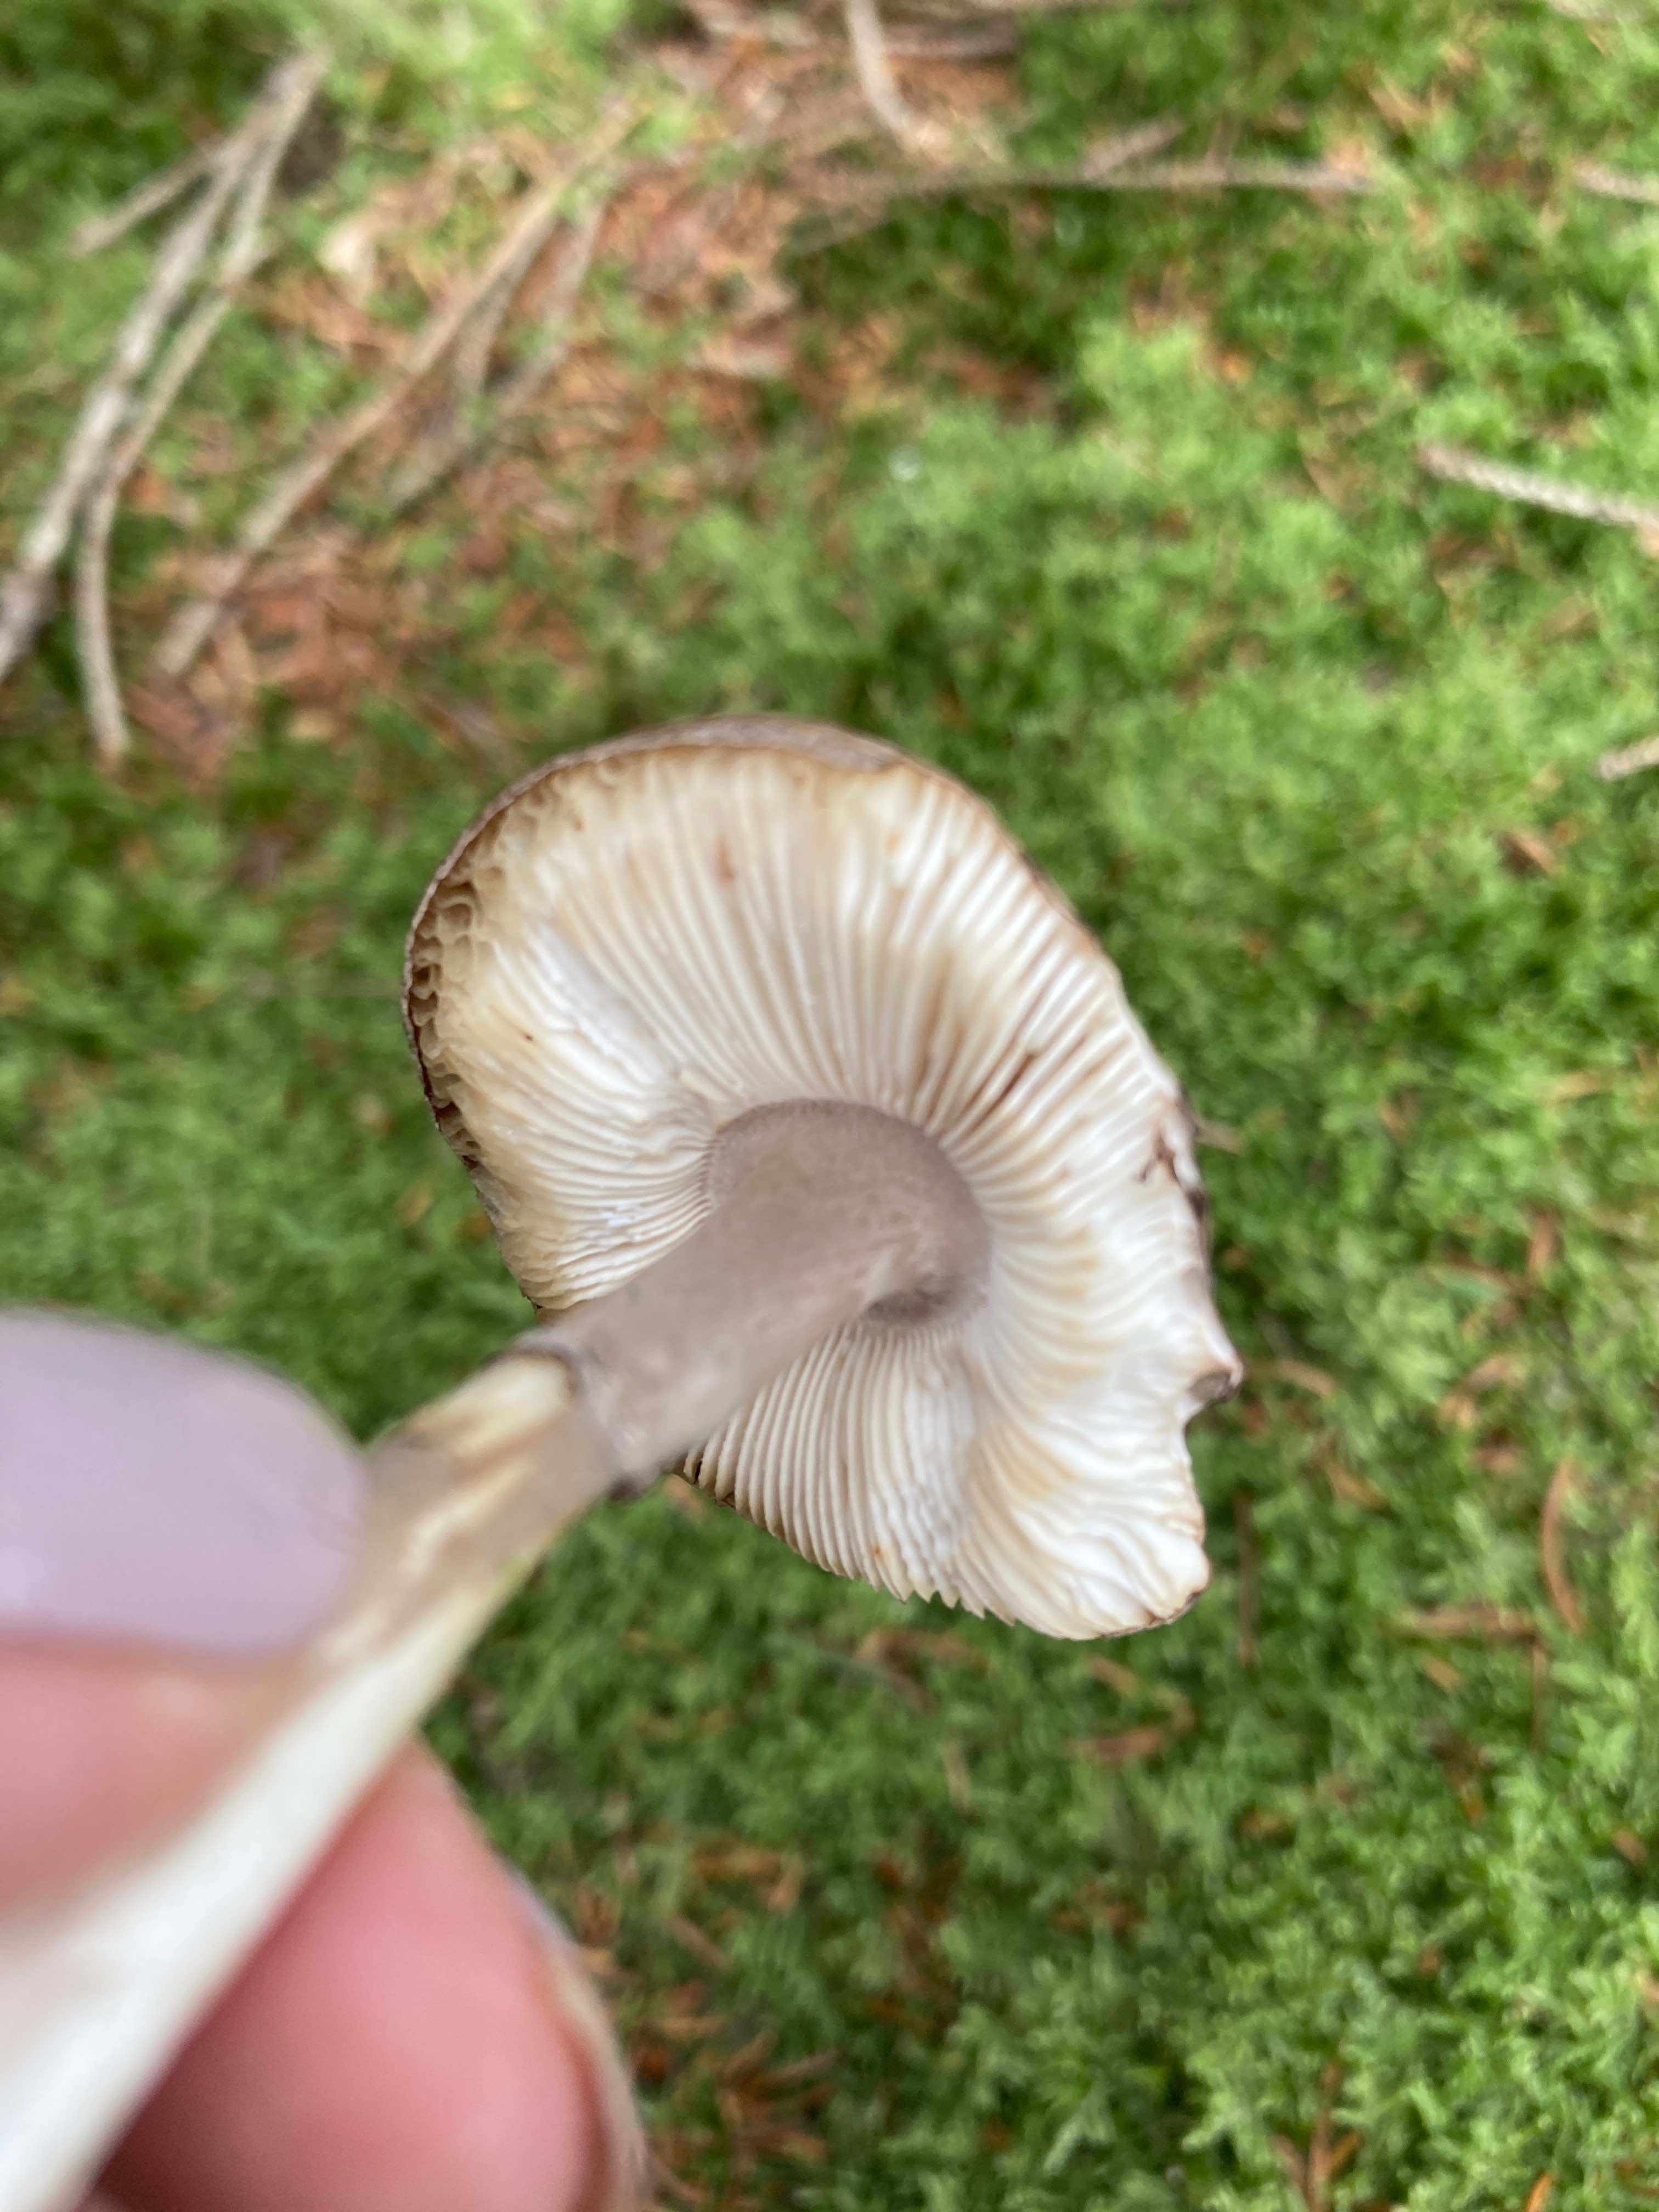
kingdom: Fungi
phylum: Basidiomycota
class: Agaricomycetes
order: Agaricales
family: Amanitaceae
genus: Amanita
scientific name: Amanita porphyria
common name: porfyr-fluesvamp
